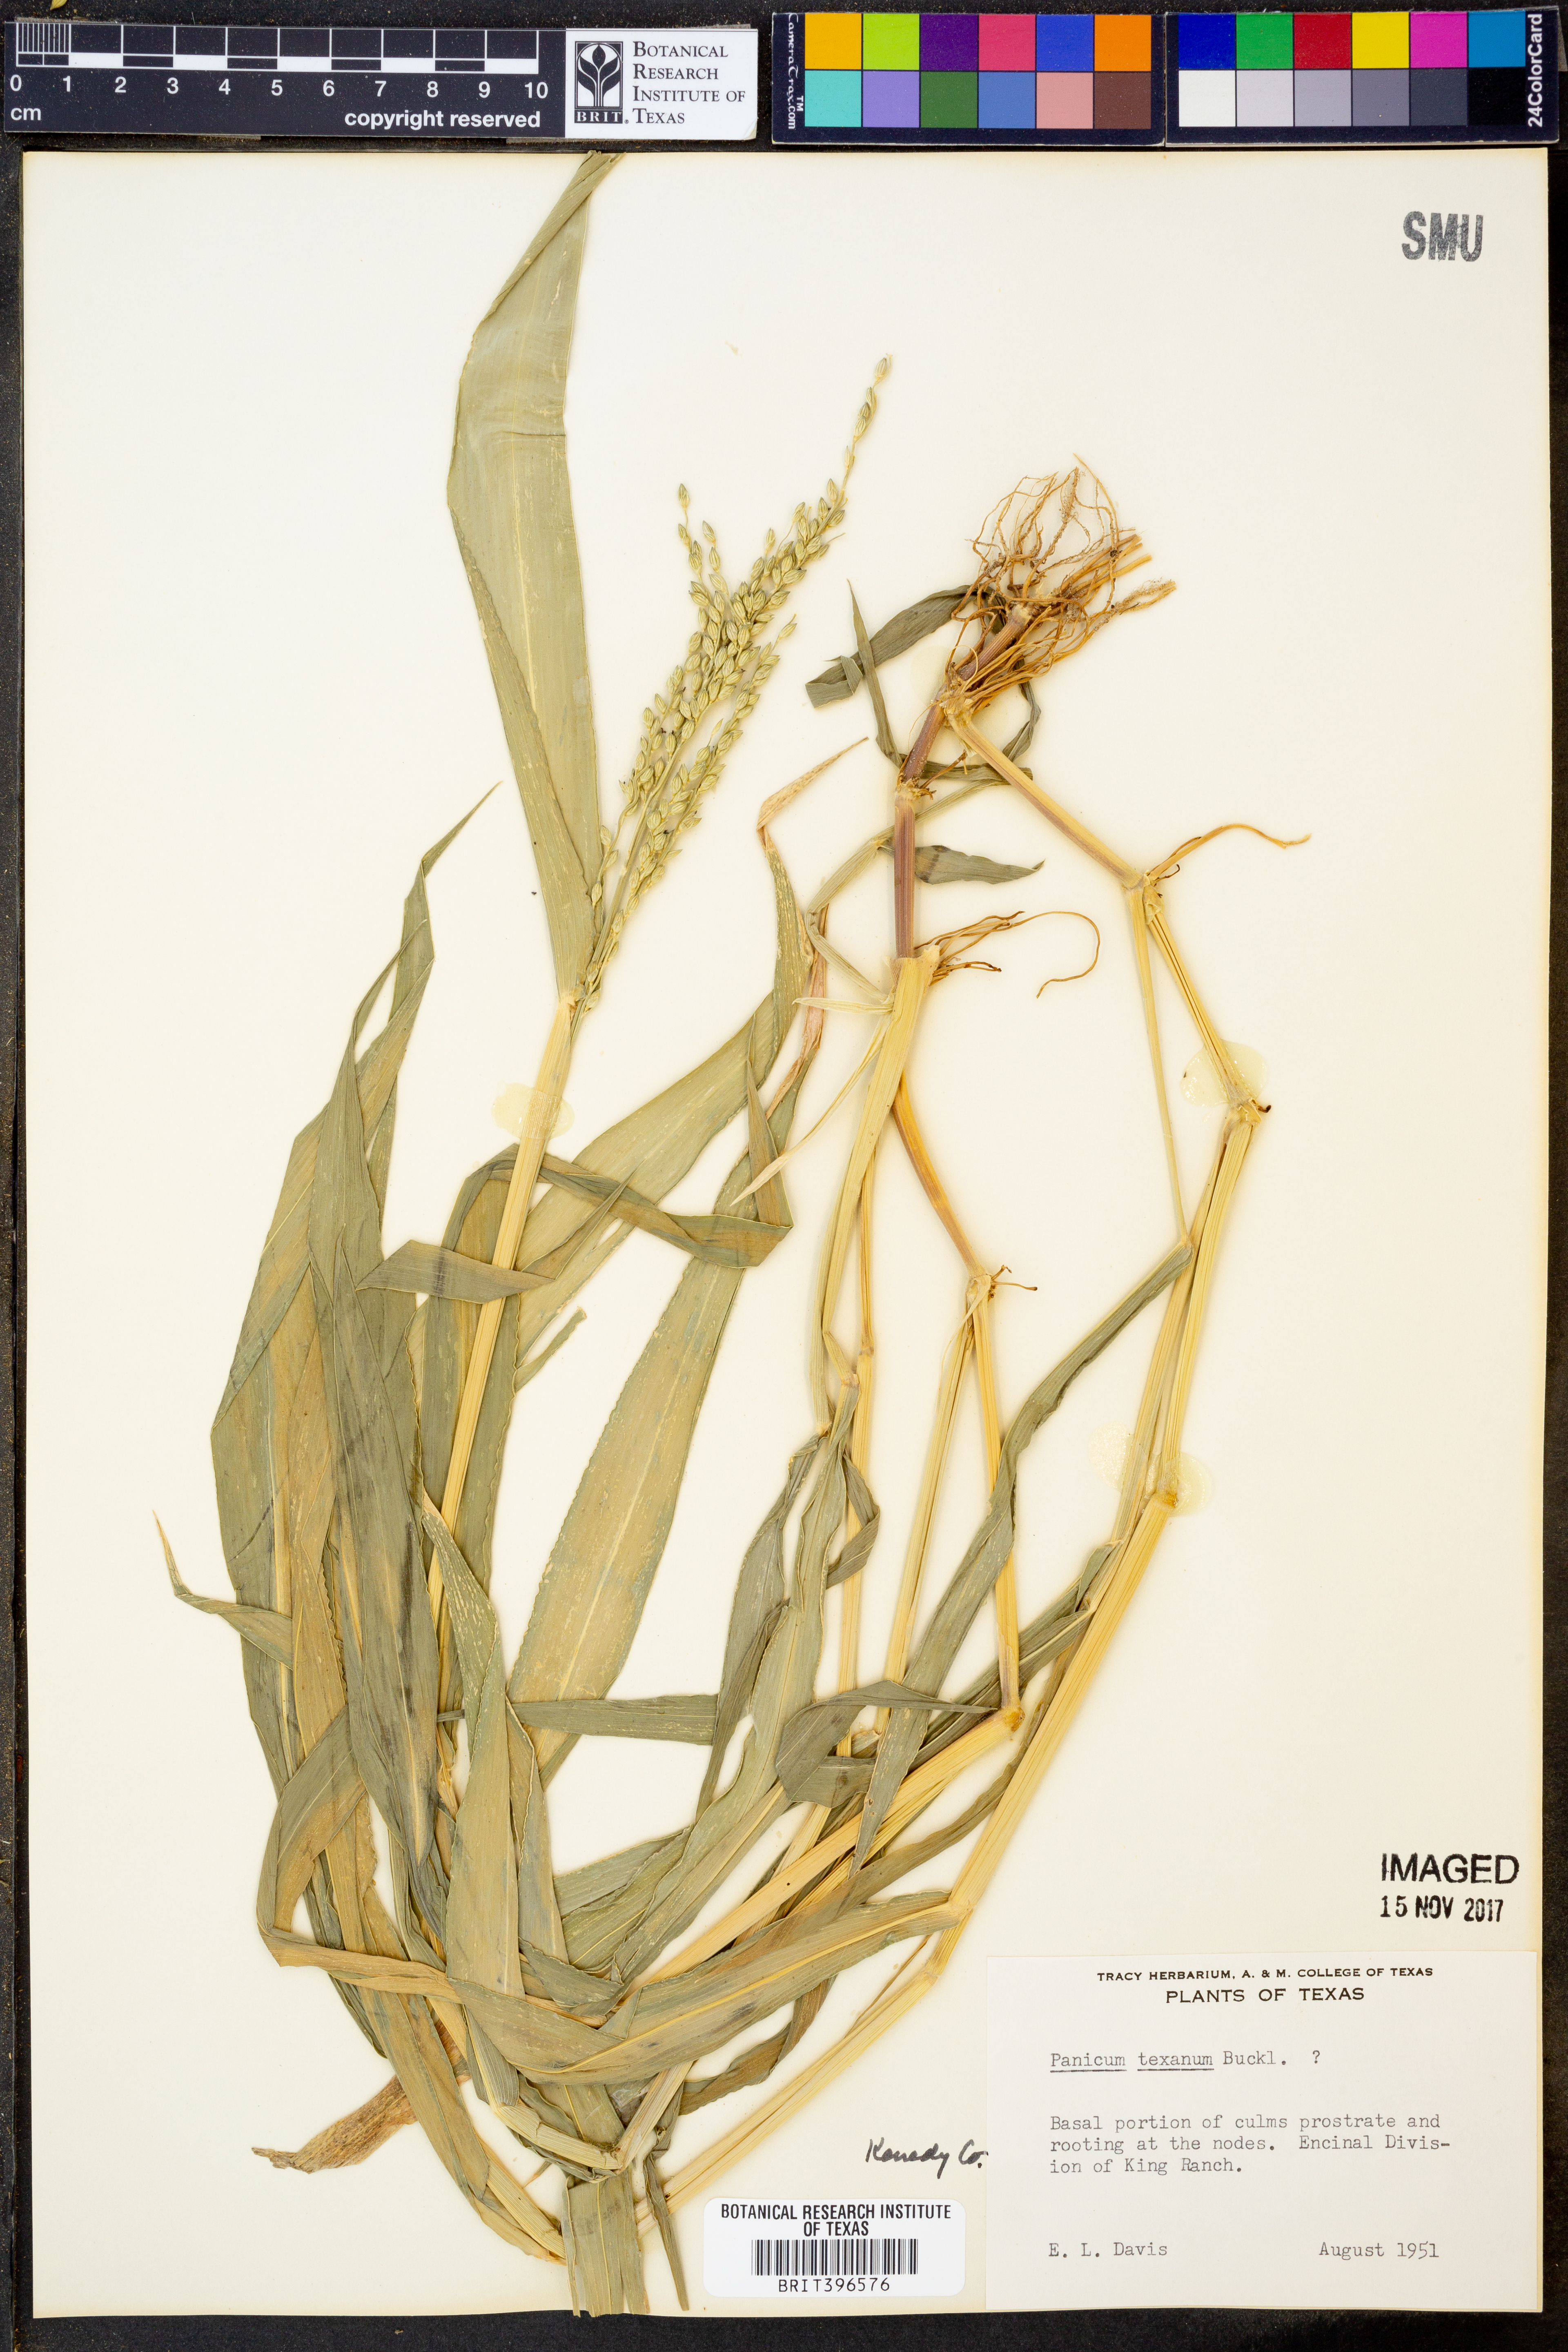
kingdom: Plantae
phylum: Tracheophyta
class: Liliopsida
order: Poales
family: Poaceae
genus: Urochloa
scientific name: Urochloa texana
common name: Texas millet
